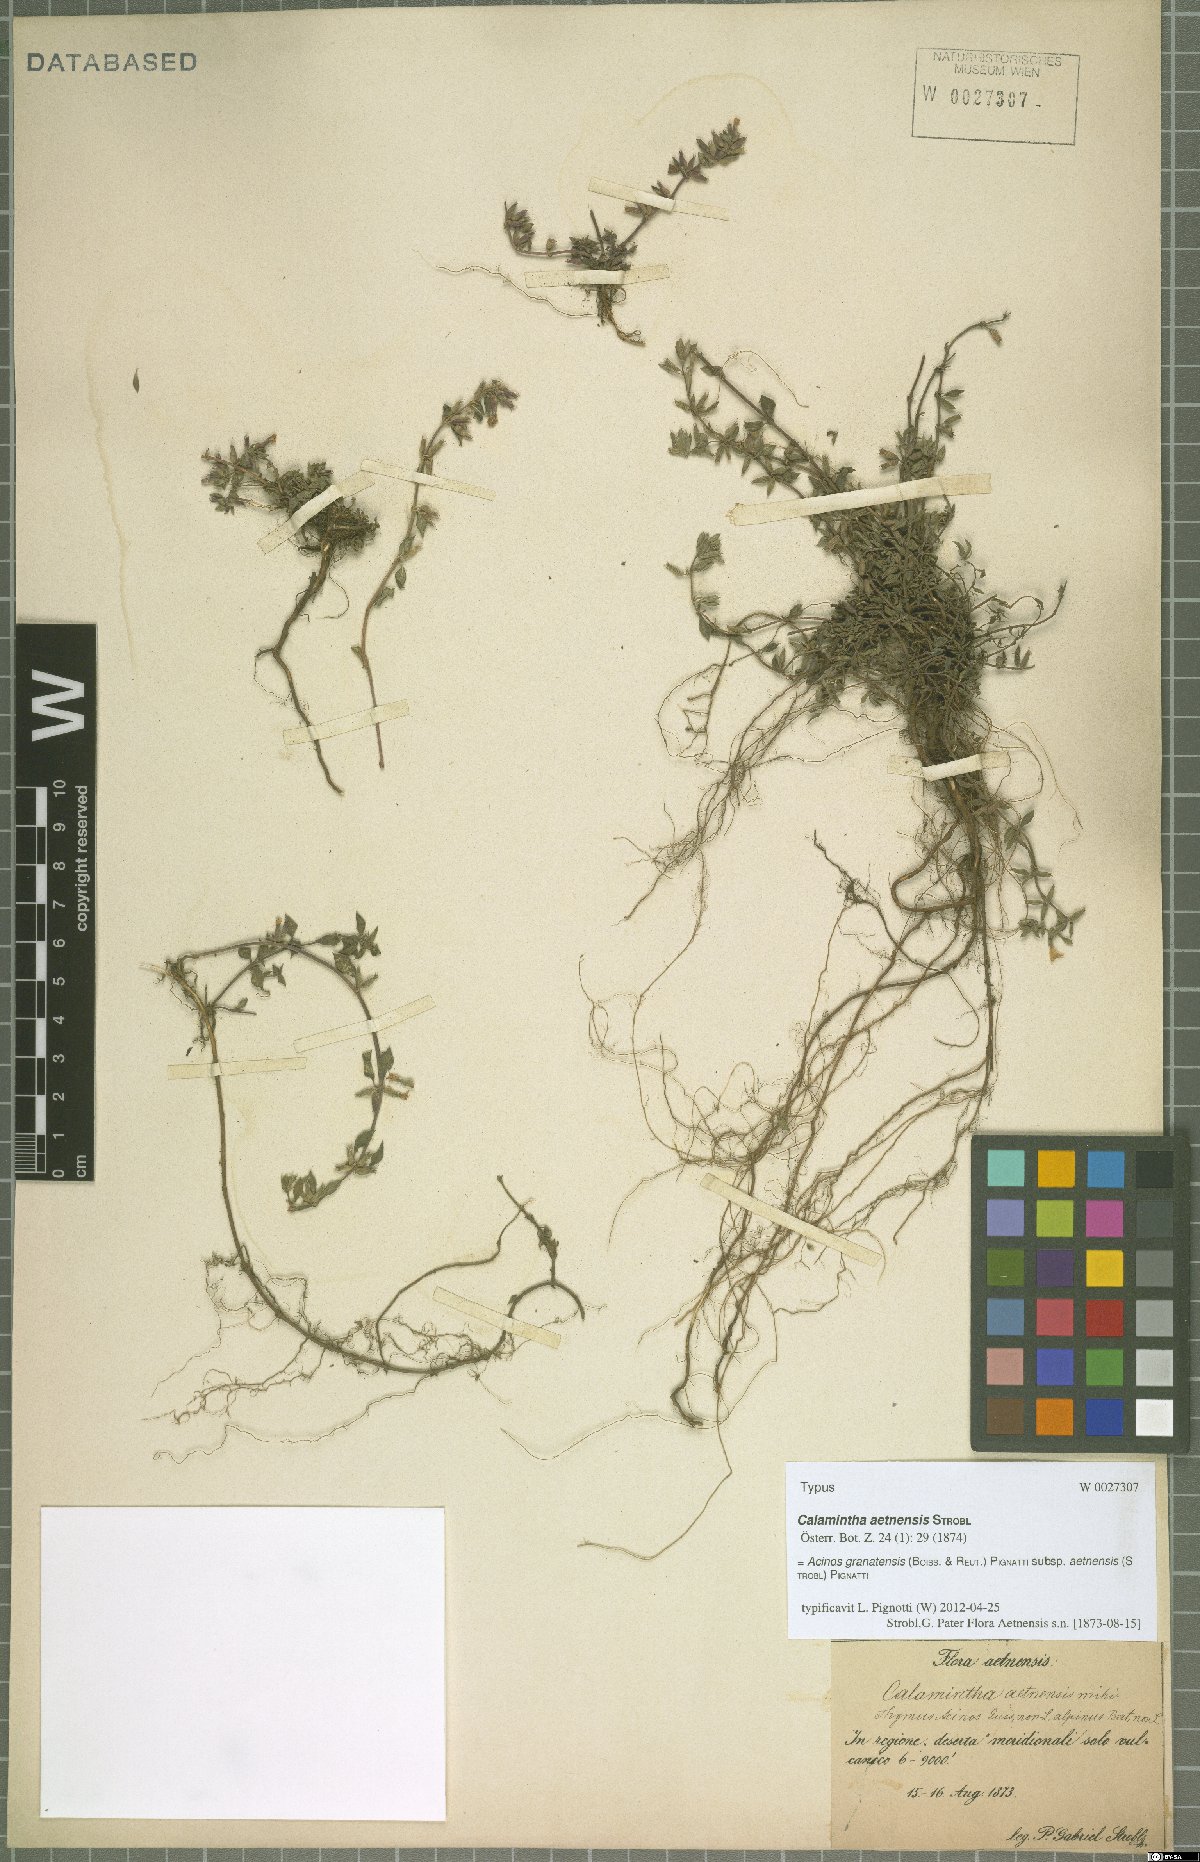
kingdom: Plantae
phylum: Tracheophyta
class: Magnoliopsida
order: Lamiales
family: Lamiaceae
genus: Clinopodium
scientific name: Clinopodium alpinum
